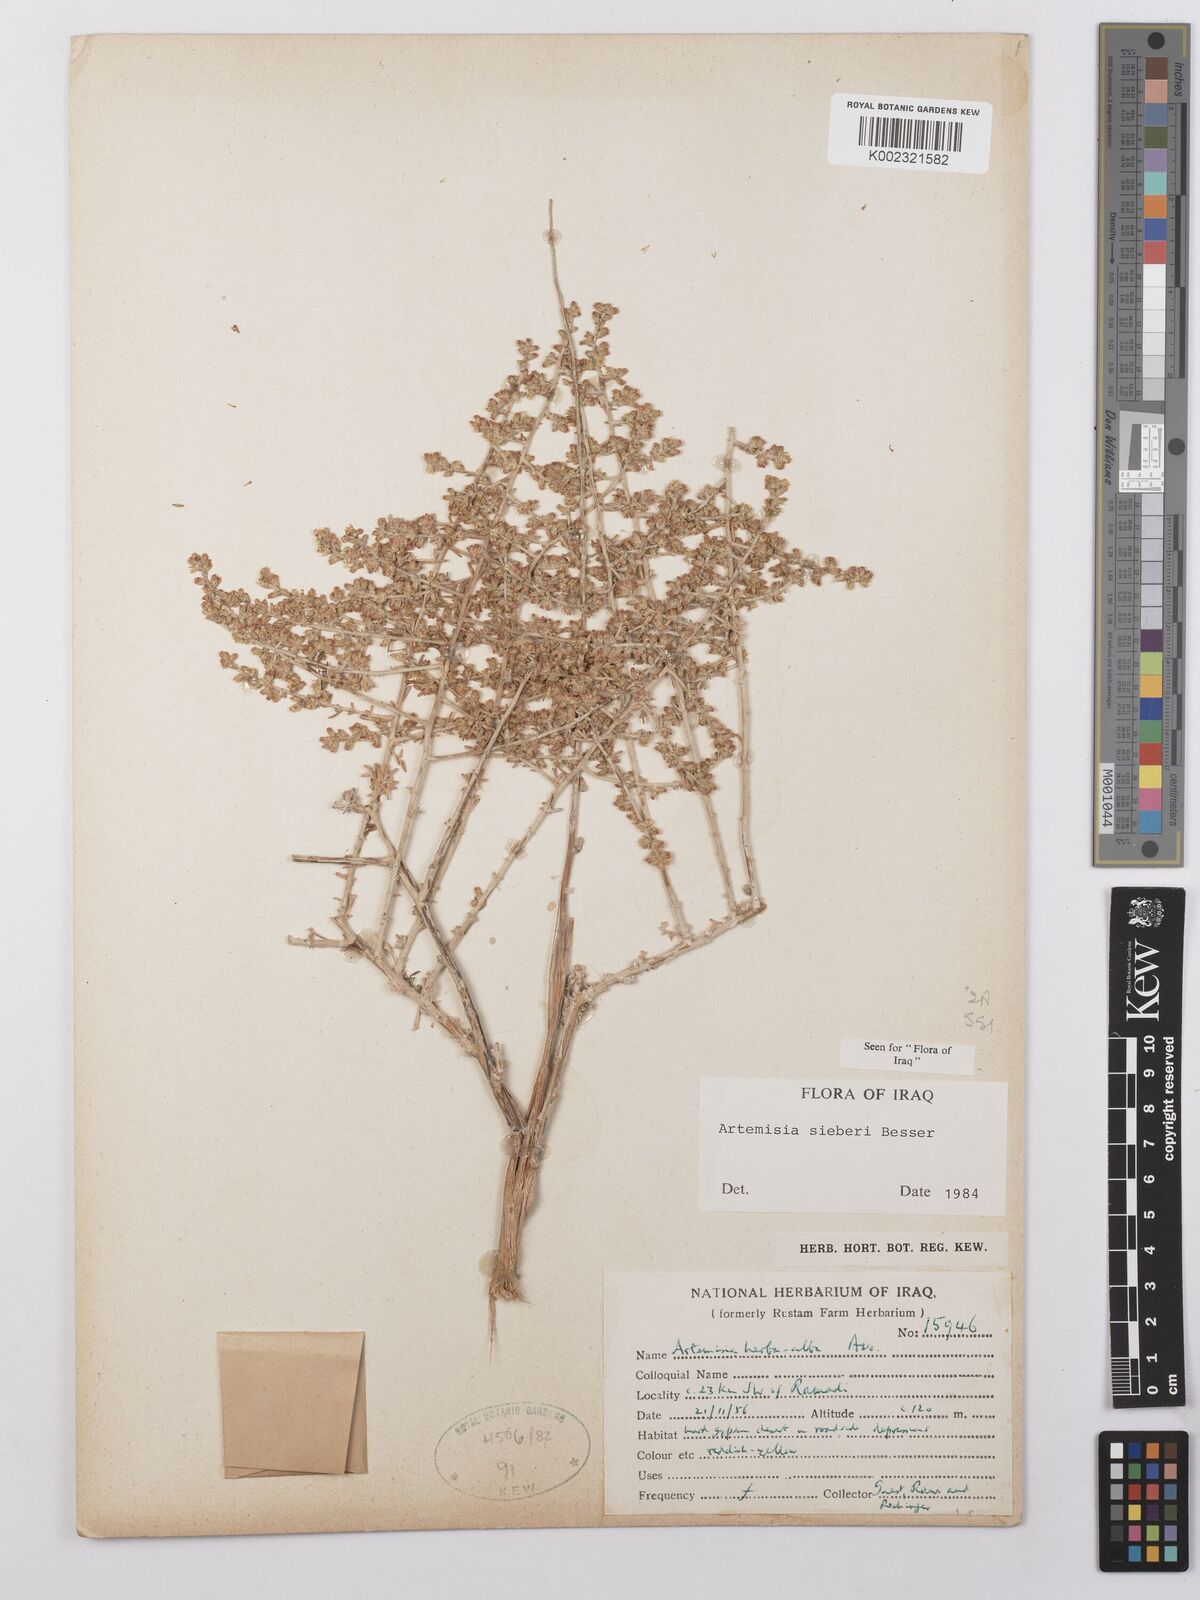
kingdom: Plantae
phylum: Tracheophyta
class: Magnoliopsida
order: Asterales
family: Asteraceae
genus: Artemisia
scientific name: Artemisia sieberi
